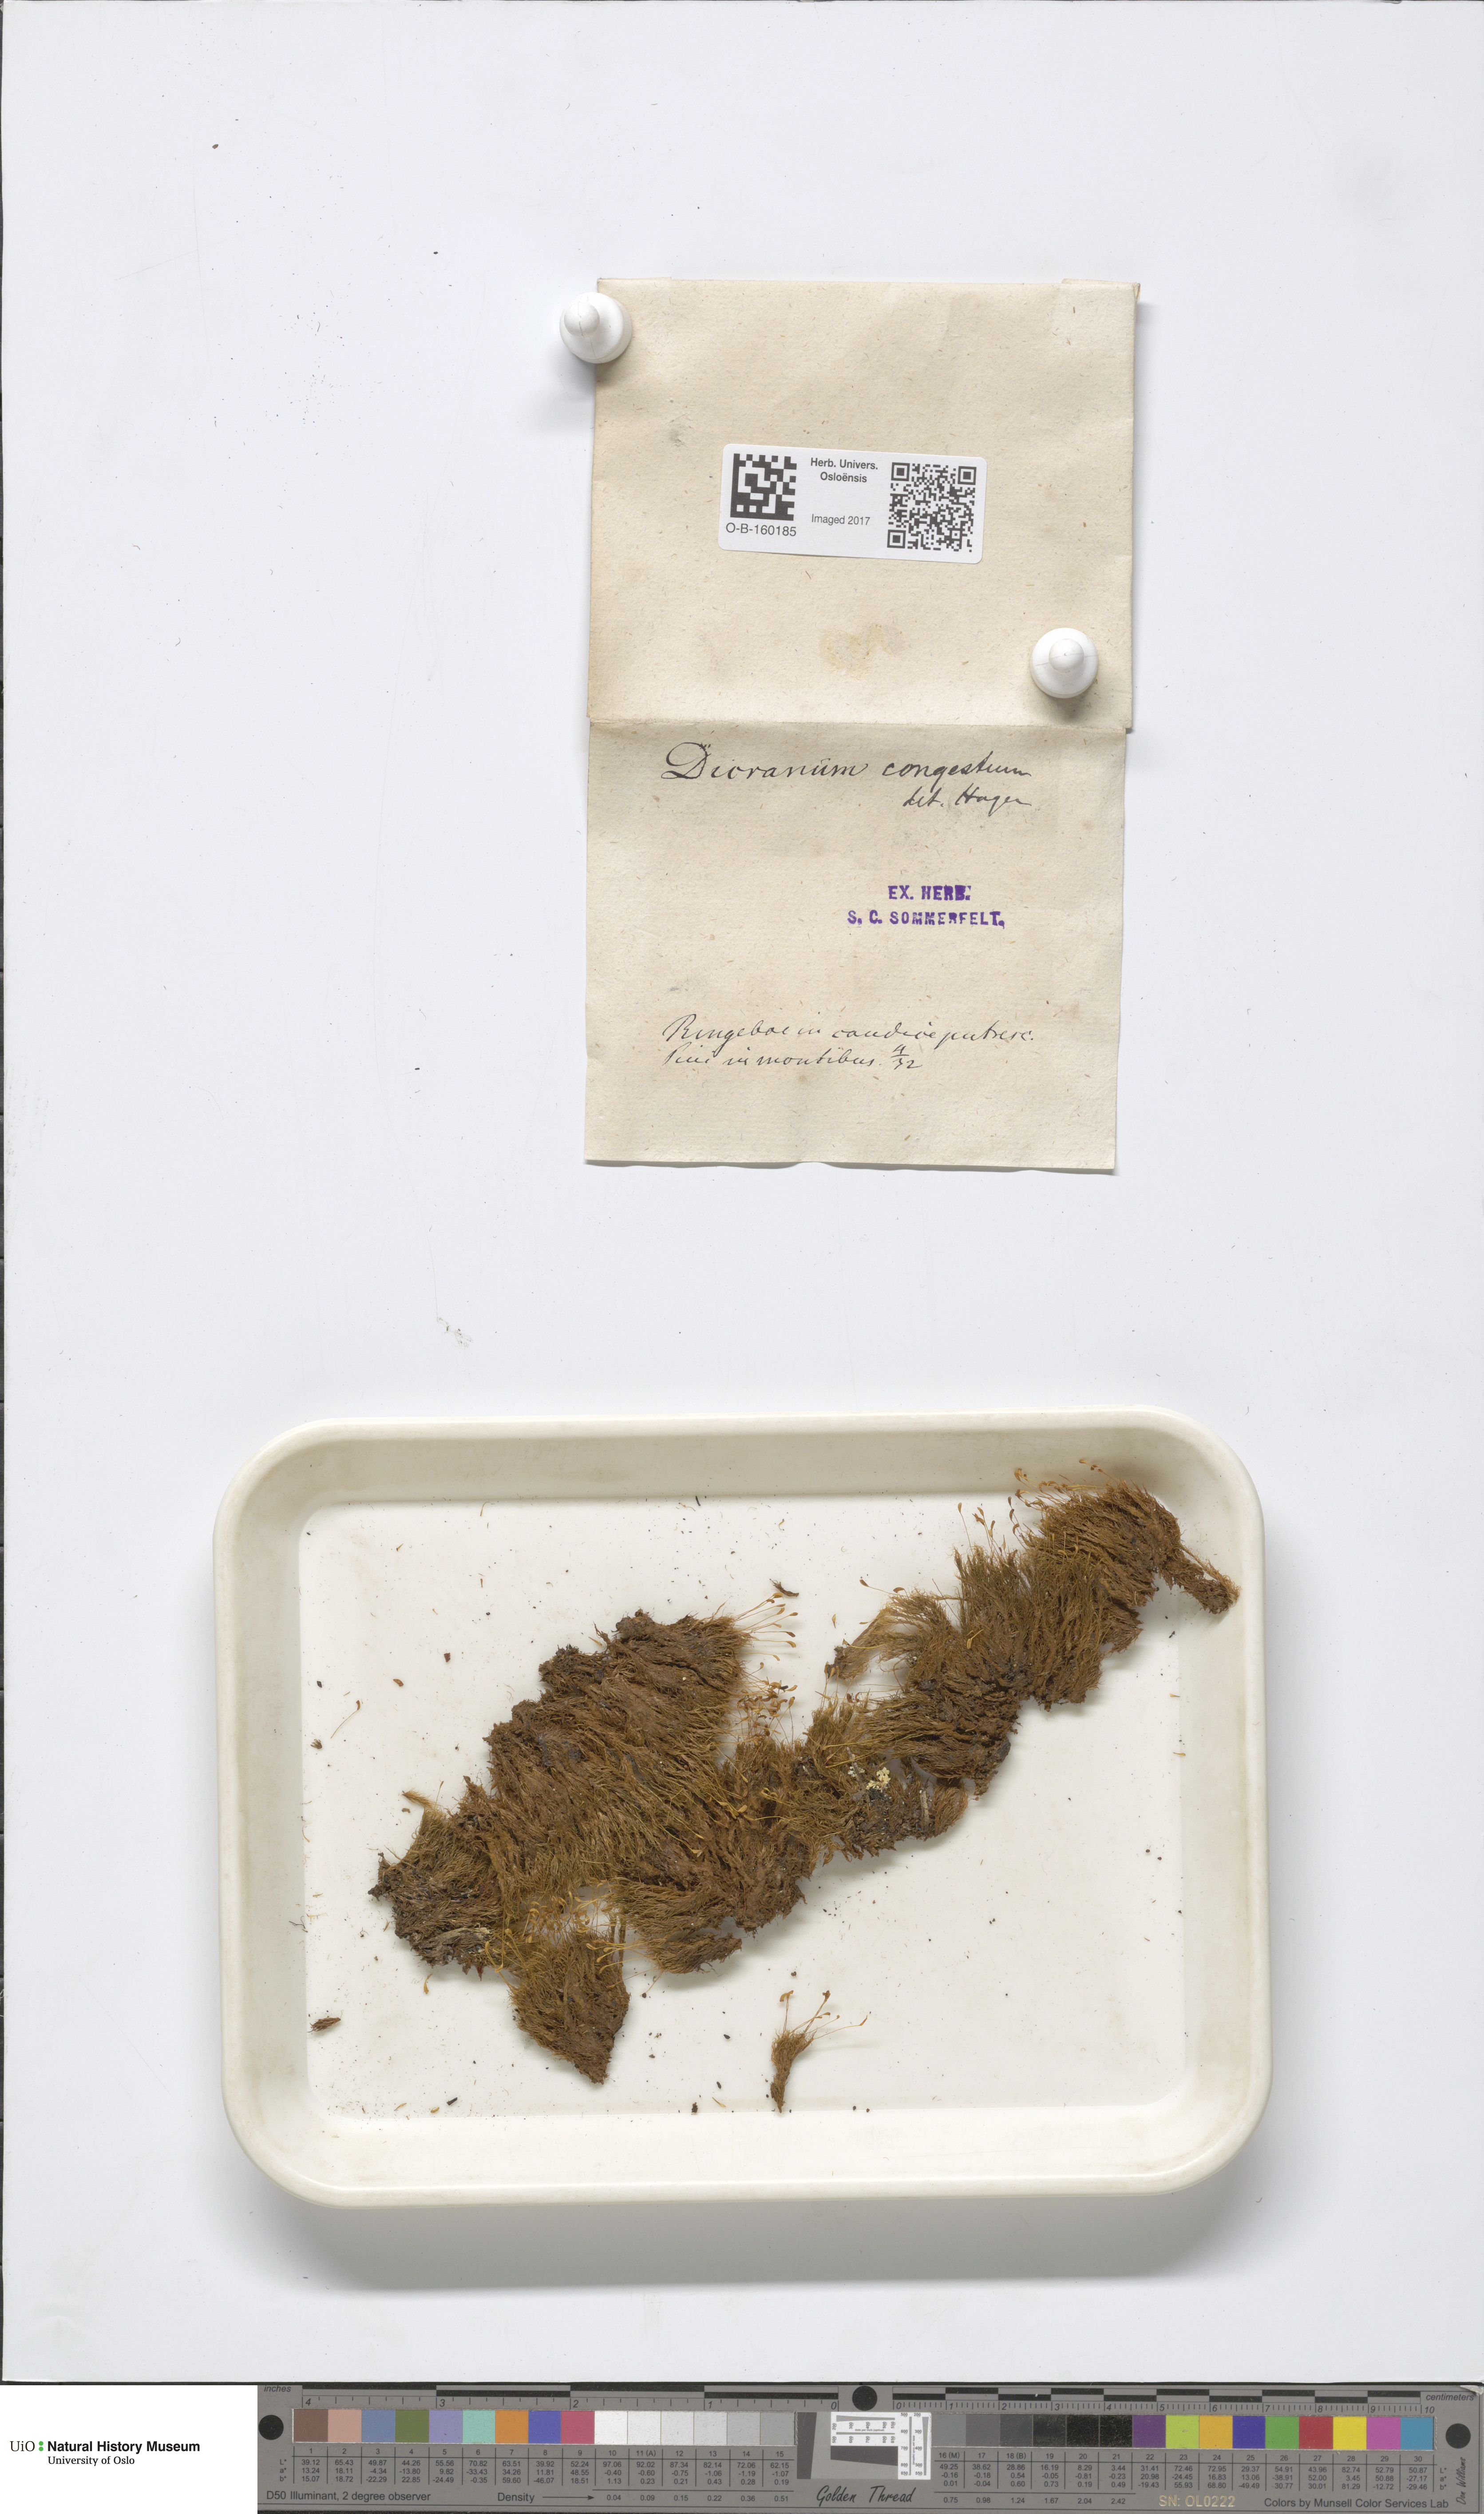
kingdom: Plantae
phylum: Bryophyta
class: Bryopsida
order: Dicranales
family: Dicranaceae
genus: Dicranum
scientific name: Dicranum flexicaule
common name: Bendy heron s-bill moss
